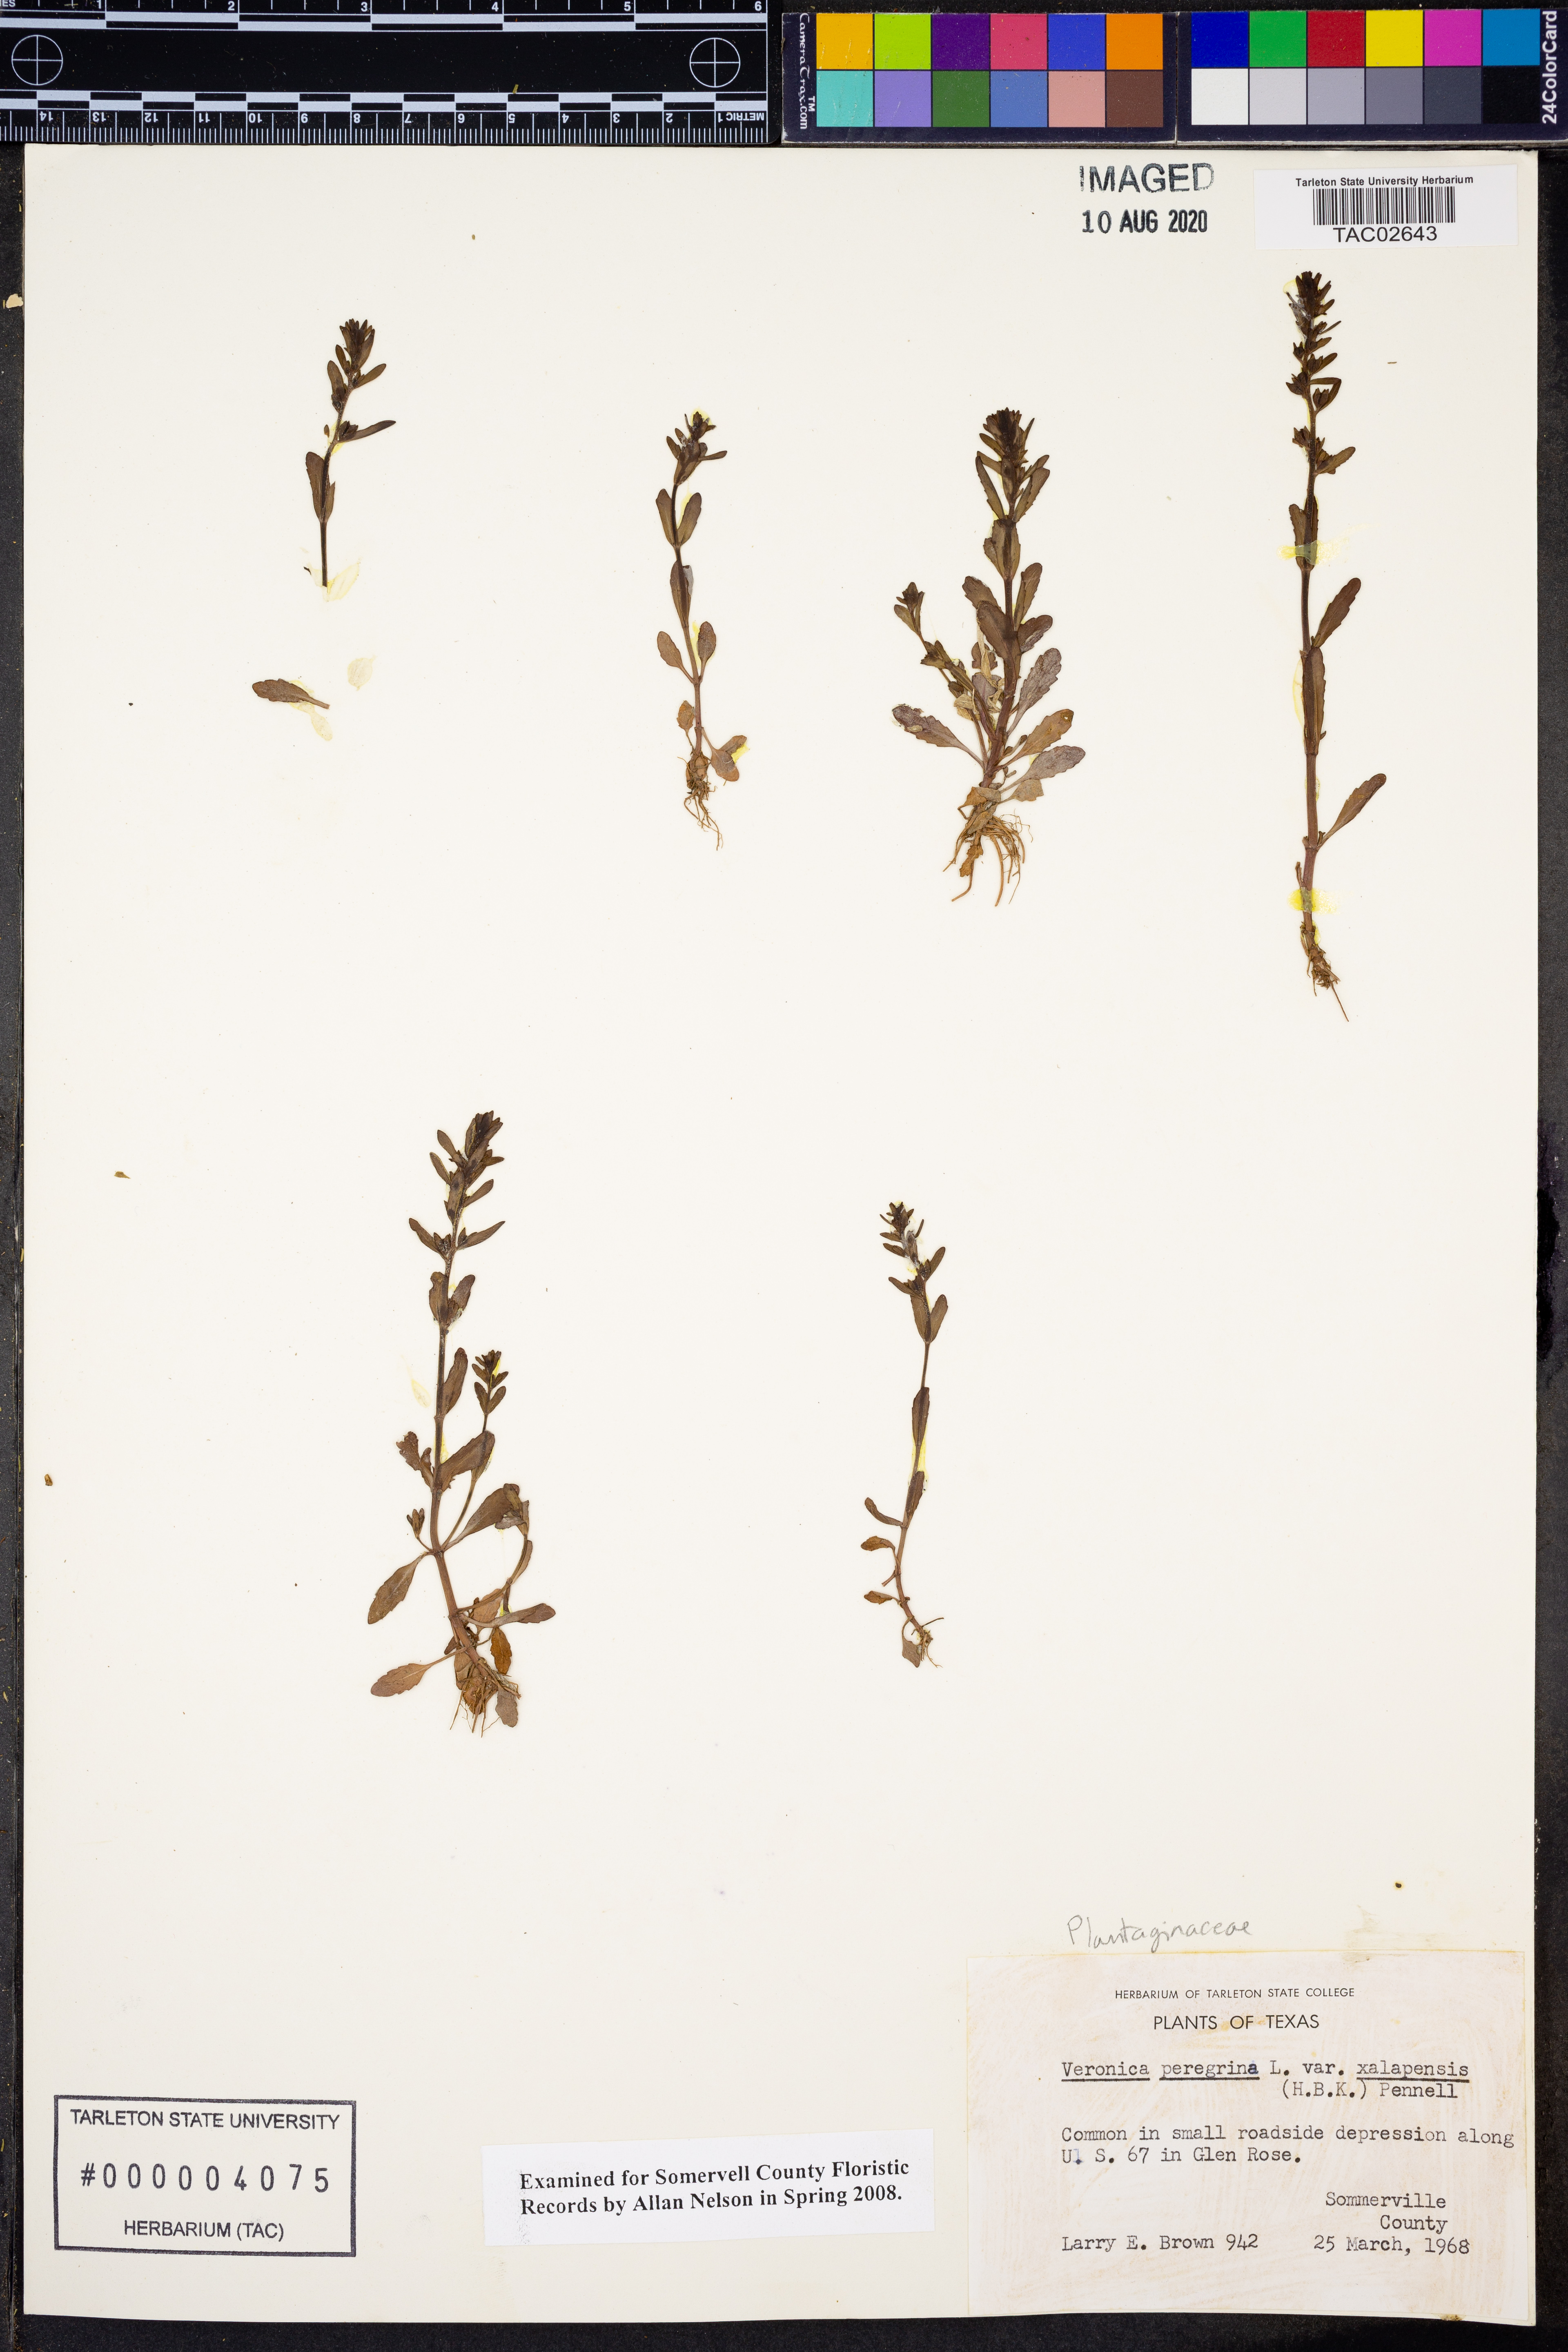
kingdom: Plantae
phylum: Tracheophyta
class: Magnoliopsida
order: Lamiales
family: Plantaginaceae
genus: Veronica
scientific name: Veronica peregrina
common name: Neckweed
